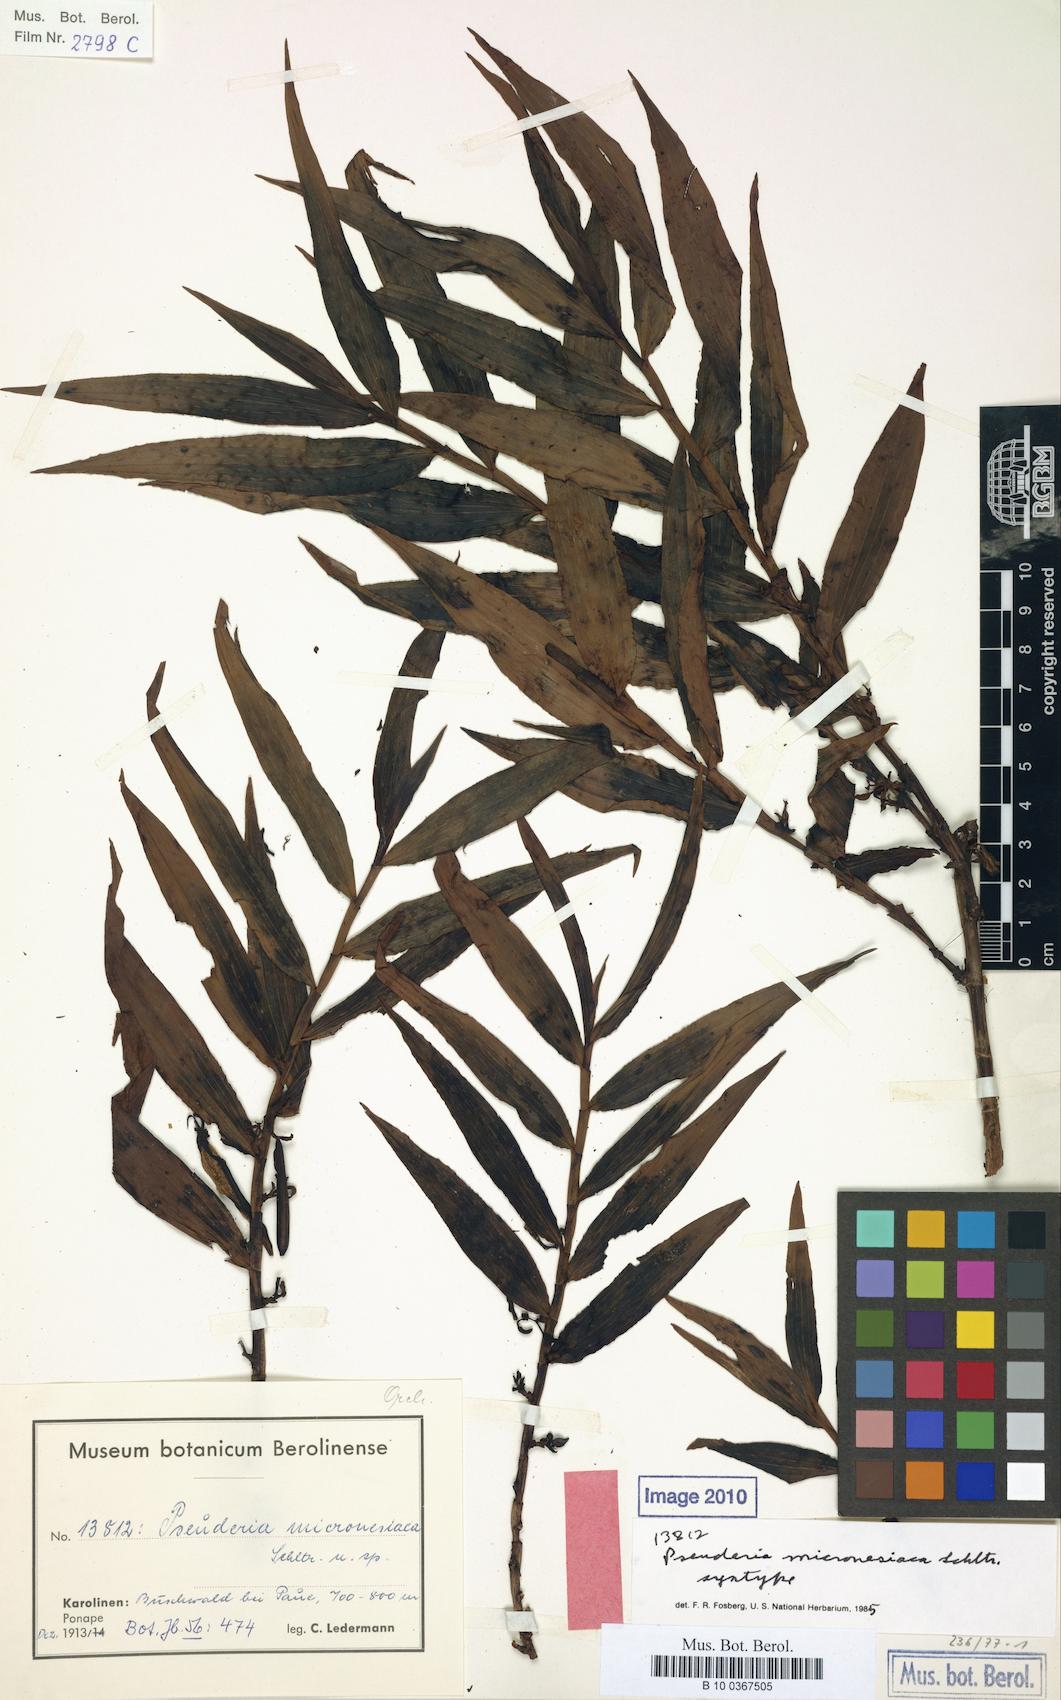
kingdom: Plantae
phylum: Tracheophyta
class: Liliopsida
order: Asparagales
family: Orchidaceae
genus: Pseuderia
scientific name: Pseuderia micronesiaca
